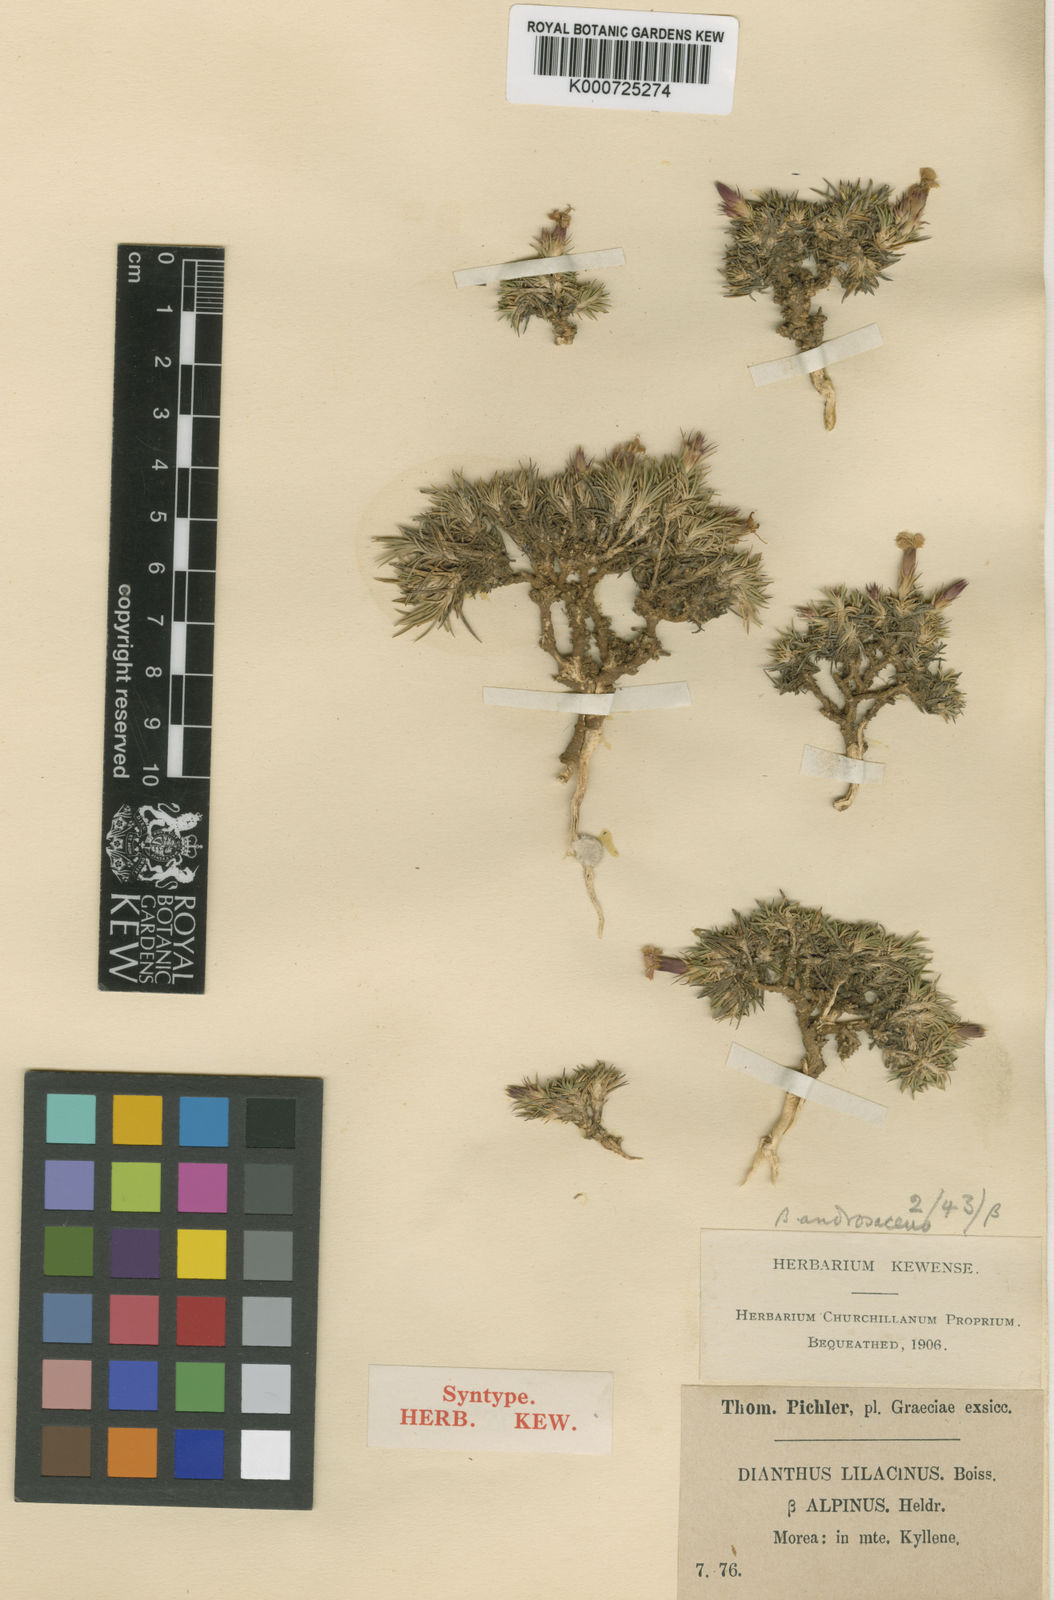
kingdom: Plantae
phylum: Tracheophyta
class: Magnoliopsida
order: Caryophyllales
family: Caryophyllaceae
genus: Dianthus
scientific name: Dianthus pinifolius
